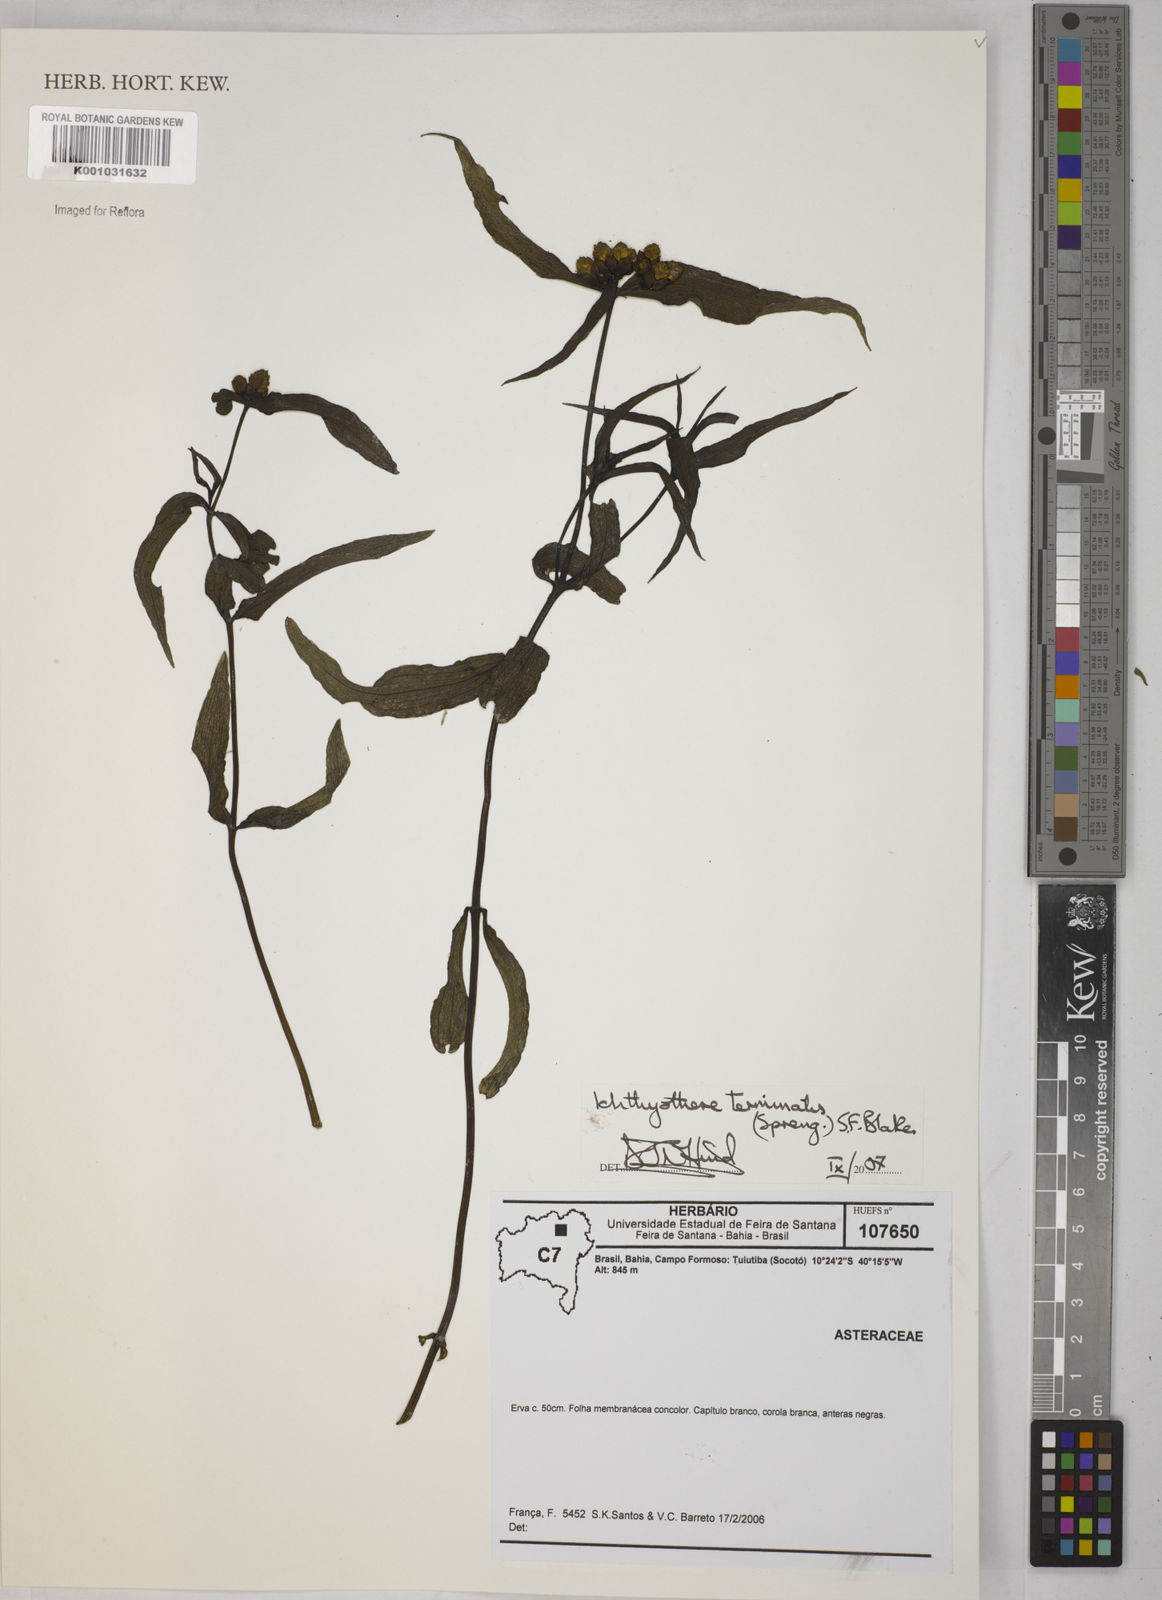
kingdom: Plantae
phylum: Tracheophyta
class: Magnoliopsida
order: Asterales
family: Asteraceae
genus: Ichthyothere
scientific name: Ichthyothere terminalis
